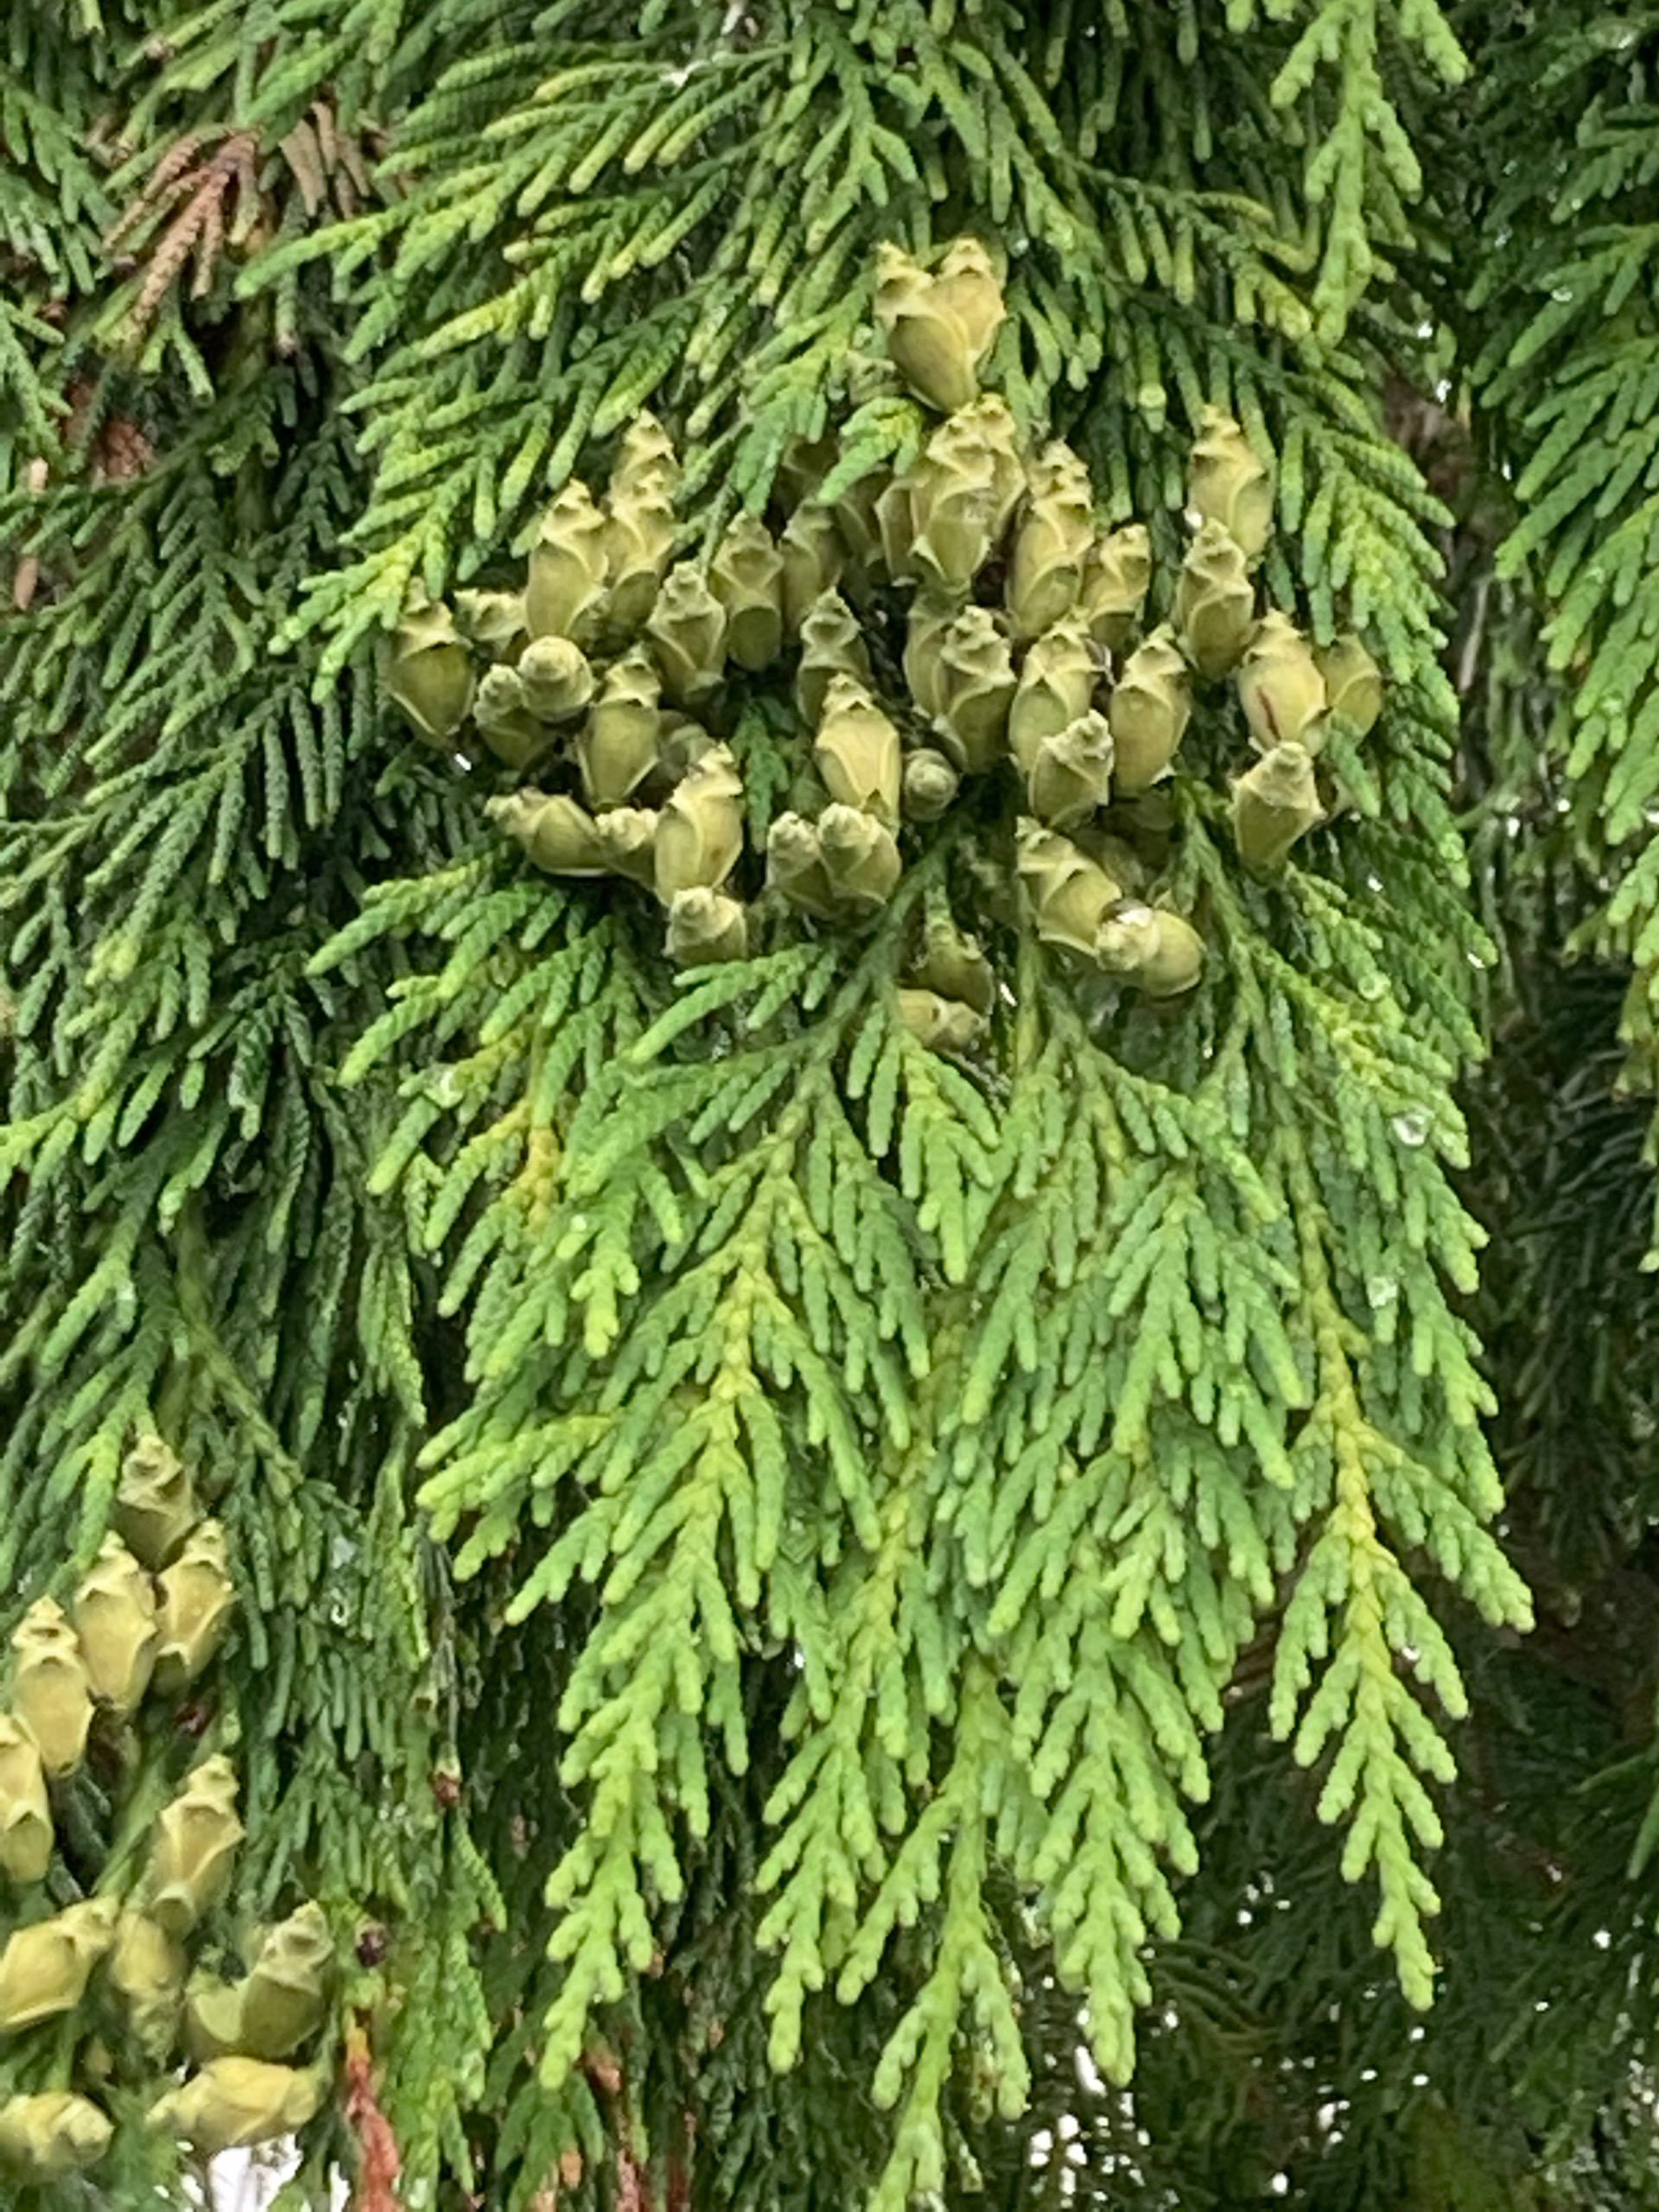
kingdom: Plantae
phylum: Tracheophyta
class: Pinopsida
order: Pinales
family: Cupressaceae
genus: Thuja
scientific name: Thuja plicata
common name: Kæmpe-thuja
